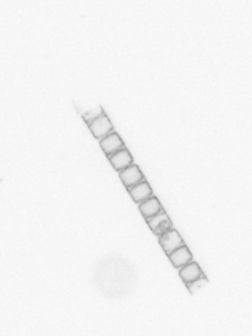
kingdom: Chromista
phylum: Ochrophyta
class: Bacillariophyceae
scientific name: Bacillariophyceae
